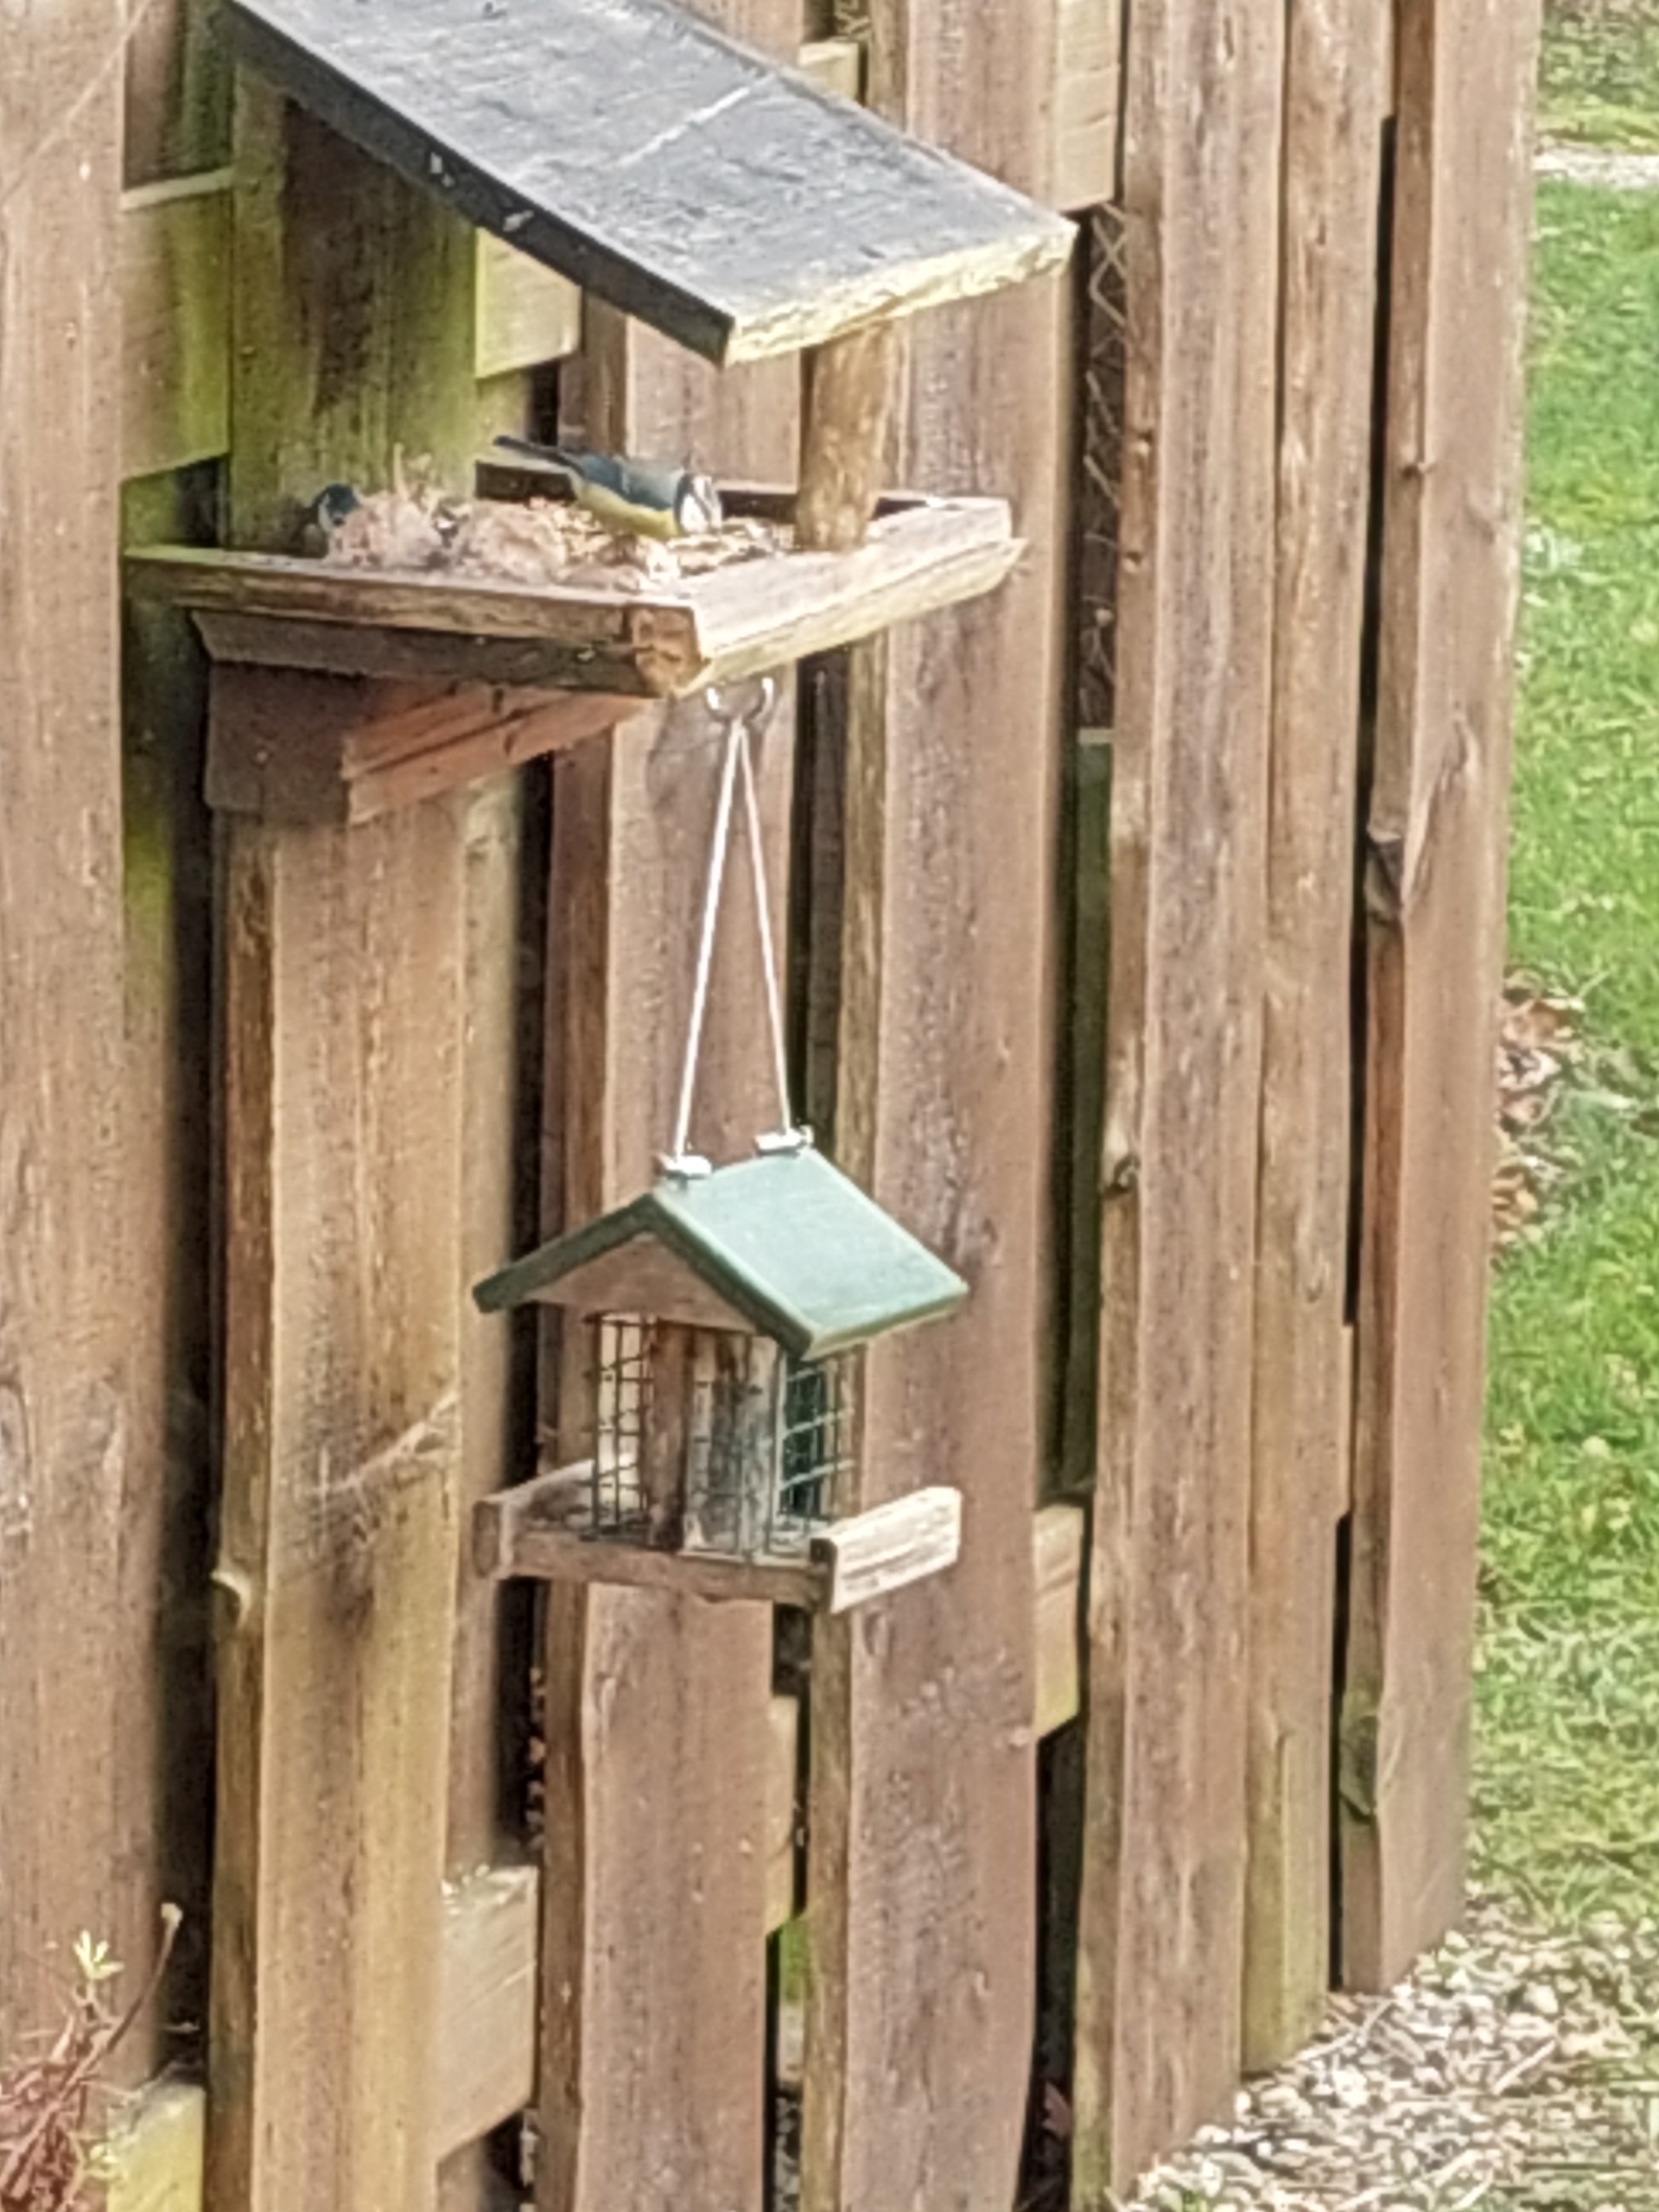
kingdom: Animalia
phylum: Chordata
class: Aves
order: Passeriformes
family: Paridae
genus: Cyanistes
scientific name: Cyanistes caeruleus
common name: Blåmejse
